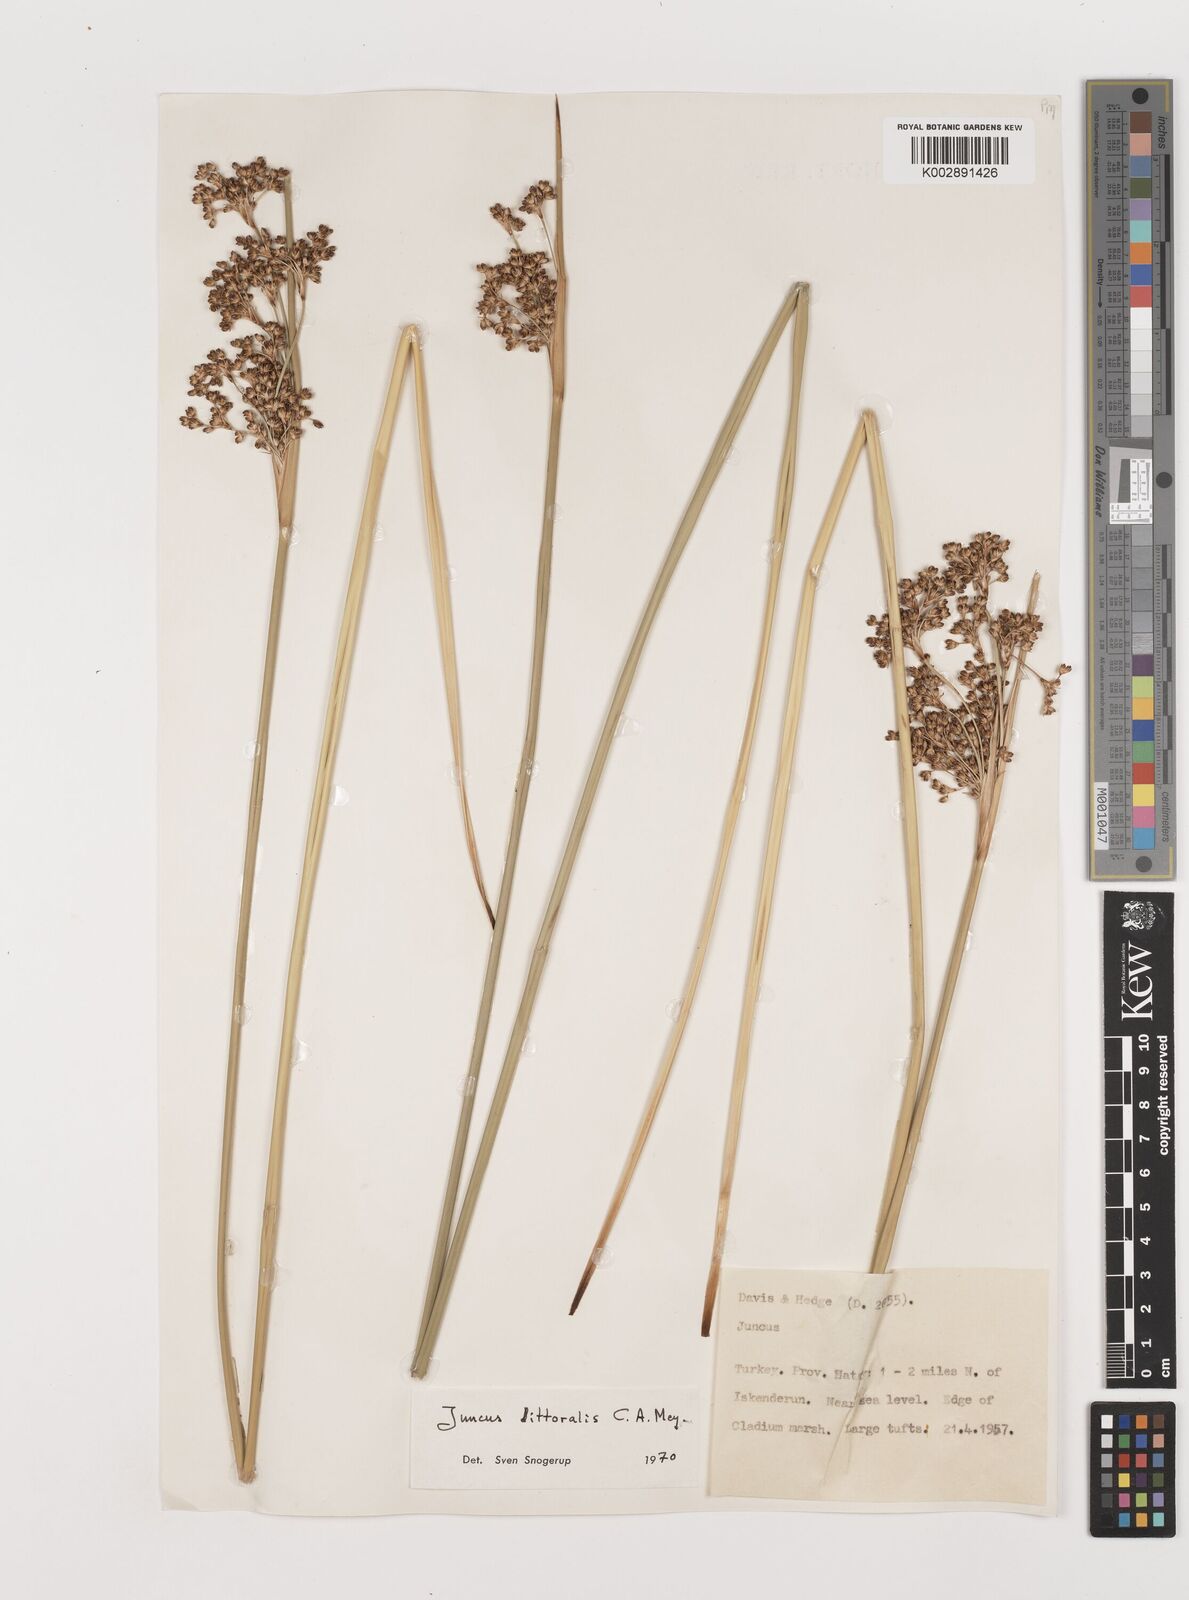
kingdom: Plantae
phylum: Tracheophyta
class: Liliopsida
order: Poales
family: Juncaceae
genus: Juncus
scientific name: Juncus littoralis
